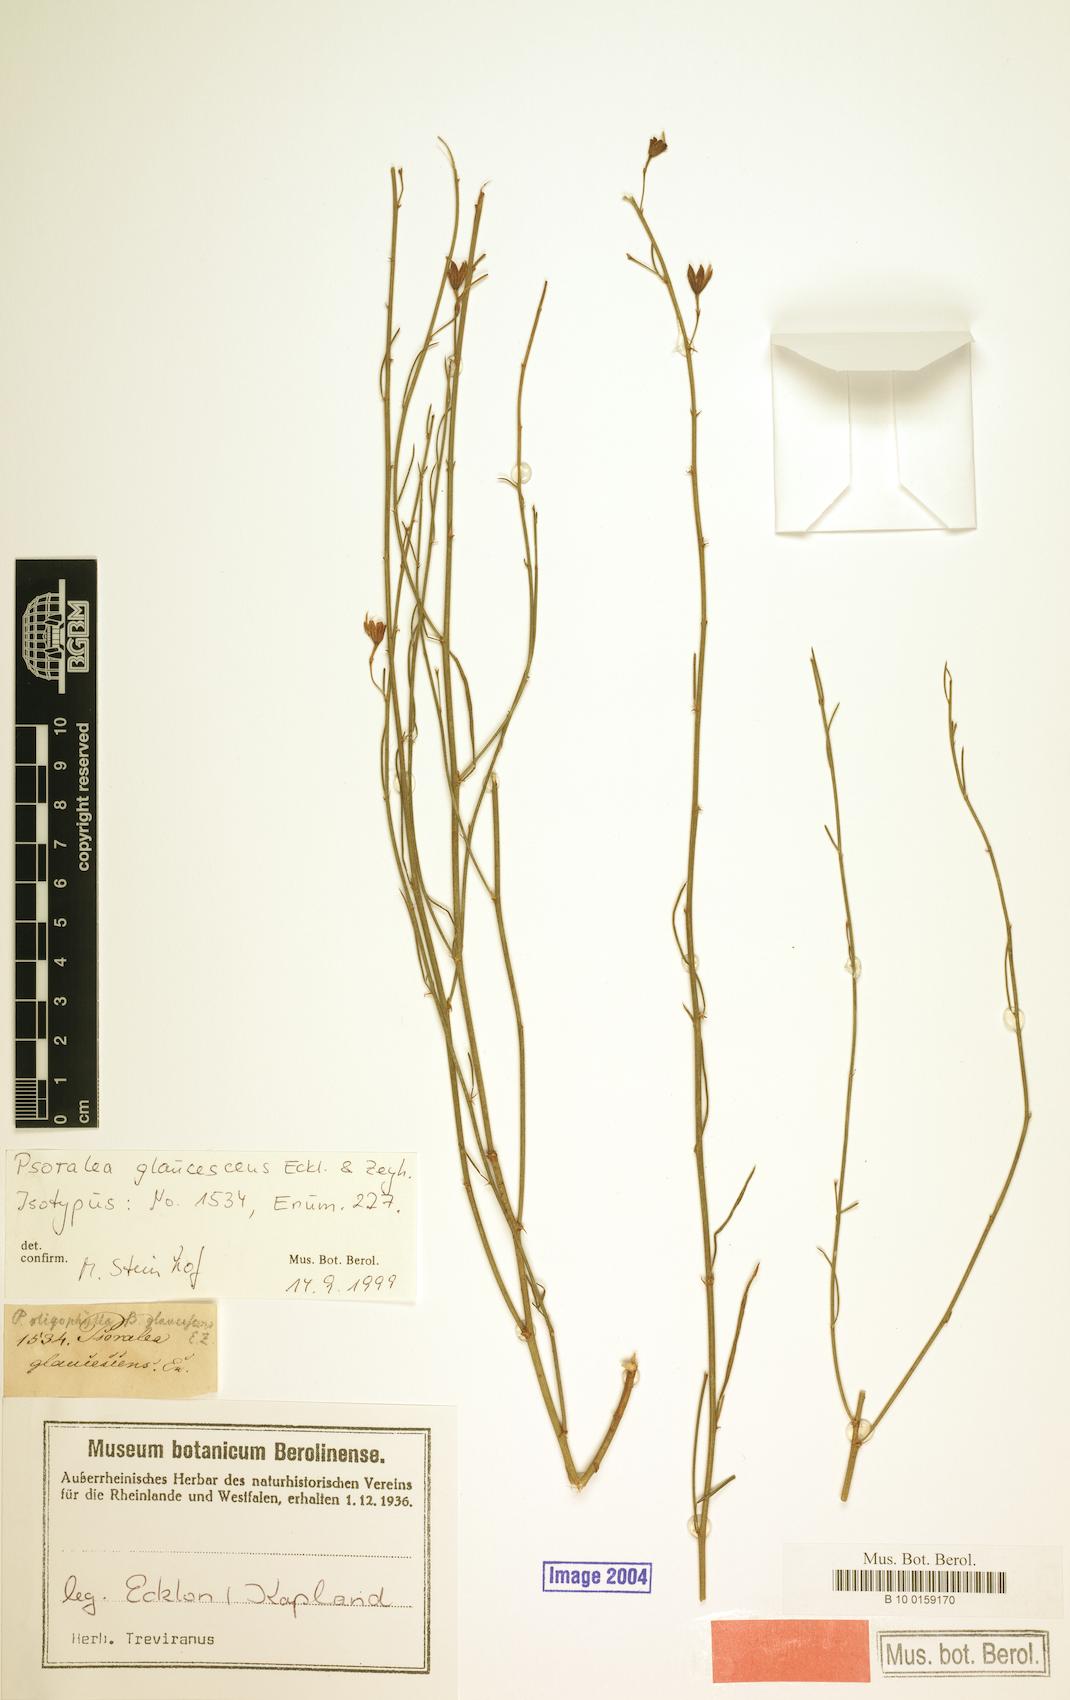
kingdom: Plantae
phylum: Tracheophyta
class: Magnoliopsida
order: Fabales
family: Fabaceae
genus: Psoralea
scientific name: Psoralea glaucescens
